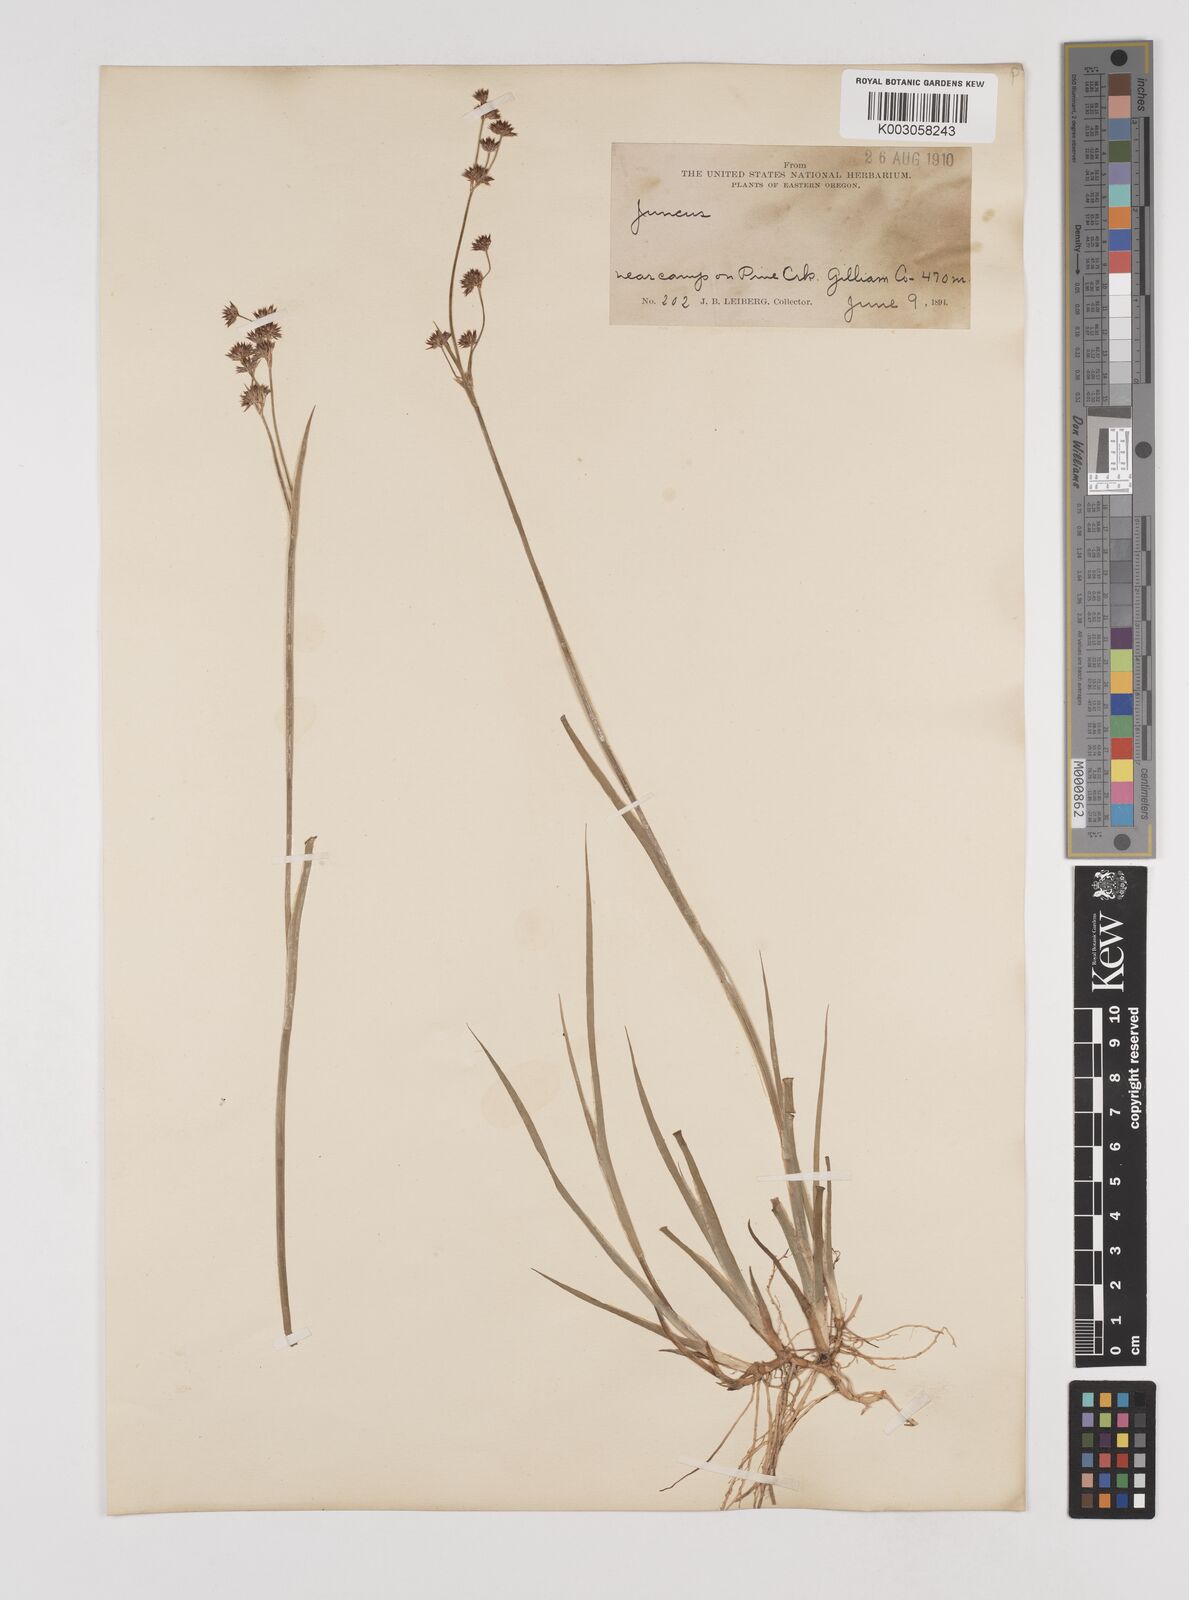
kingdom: Plantae
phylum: Tracheophyta
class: Liliopsida
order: Poales
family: Juncaceae
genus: Juncus
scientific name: Juncus
